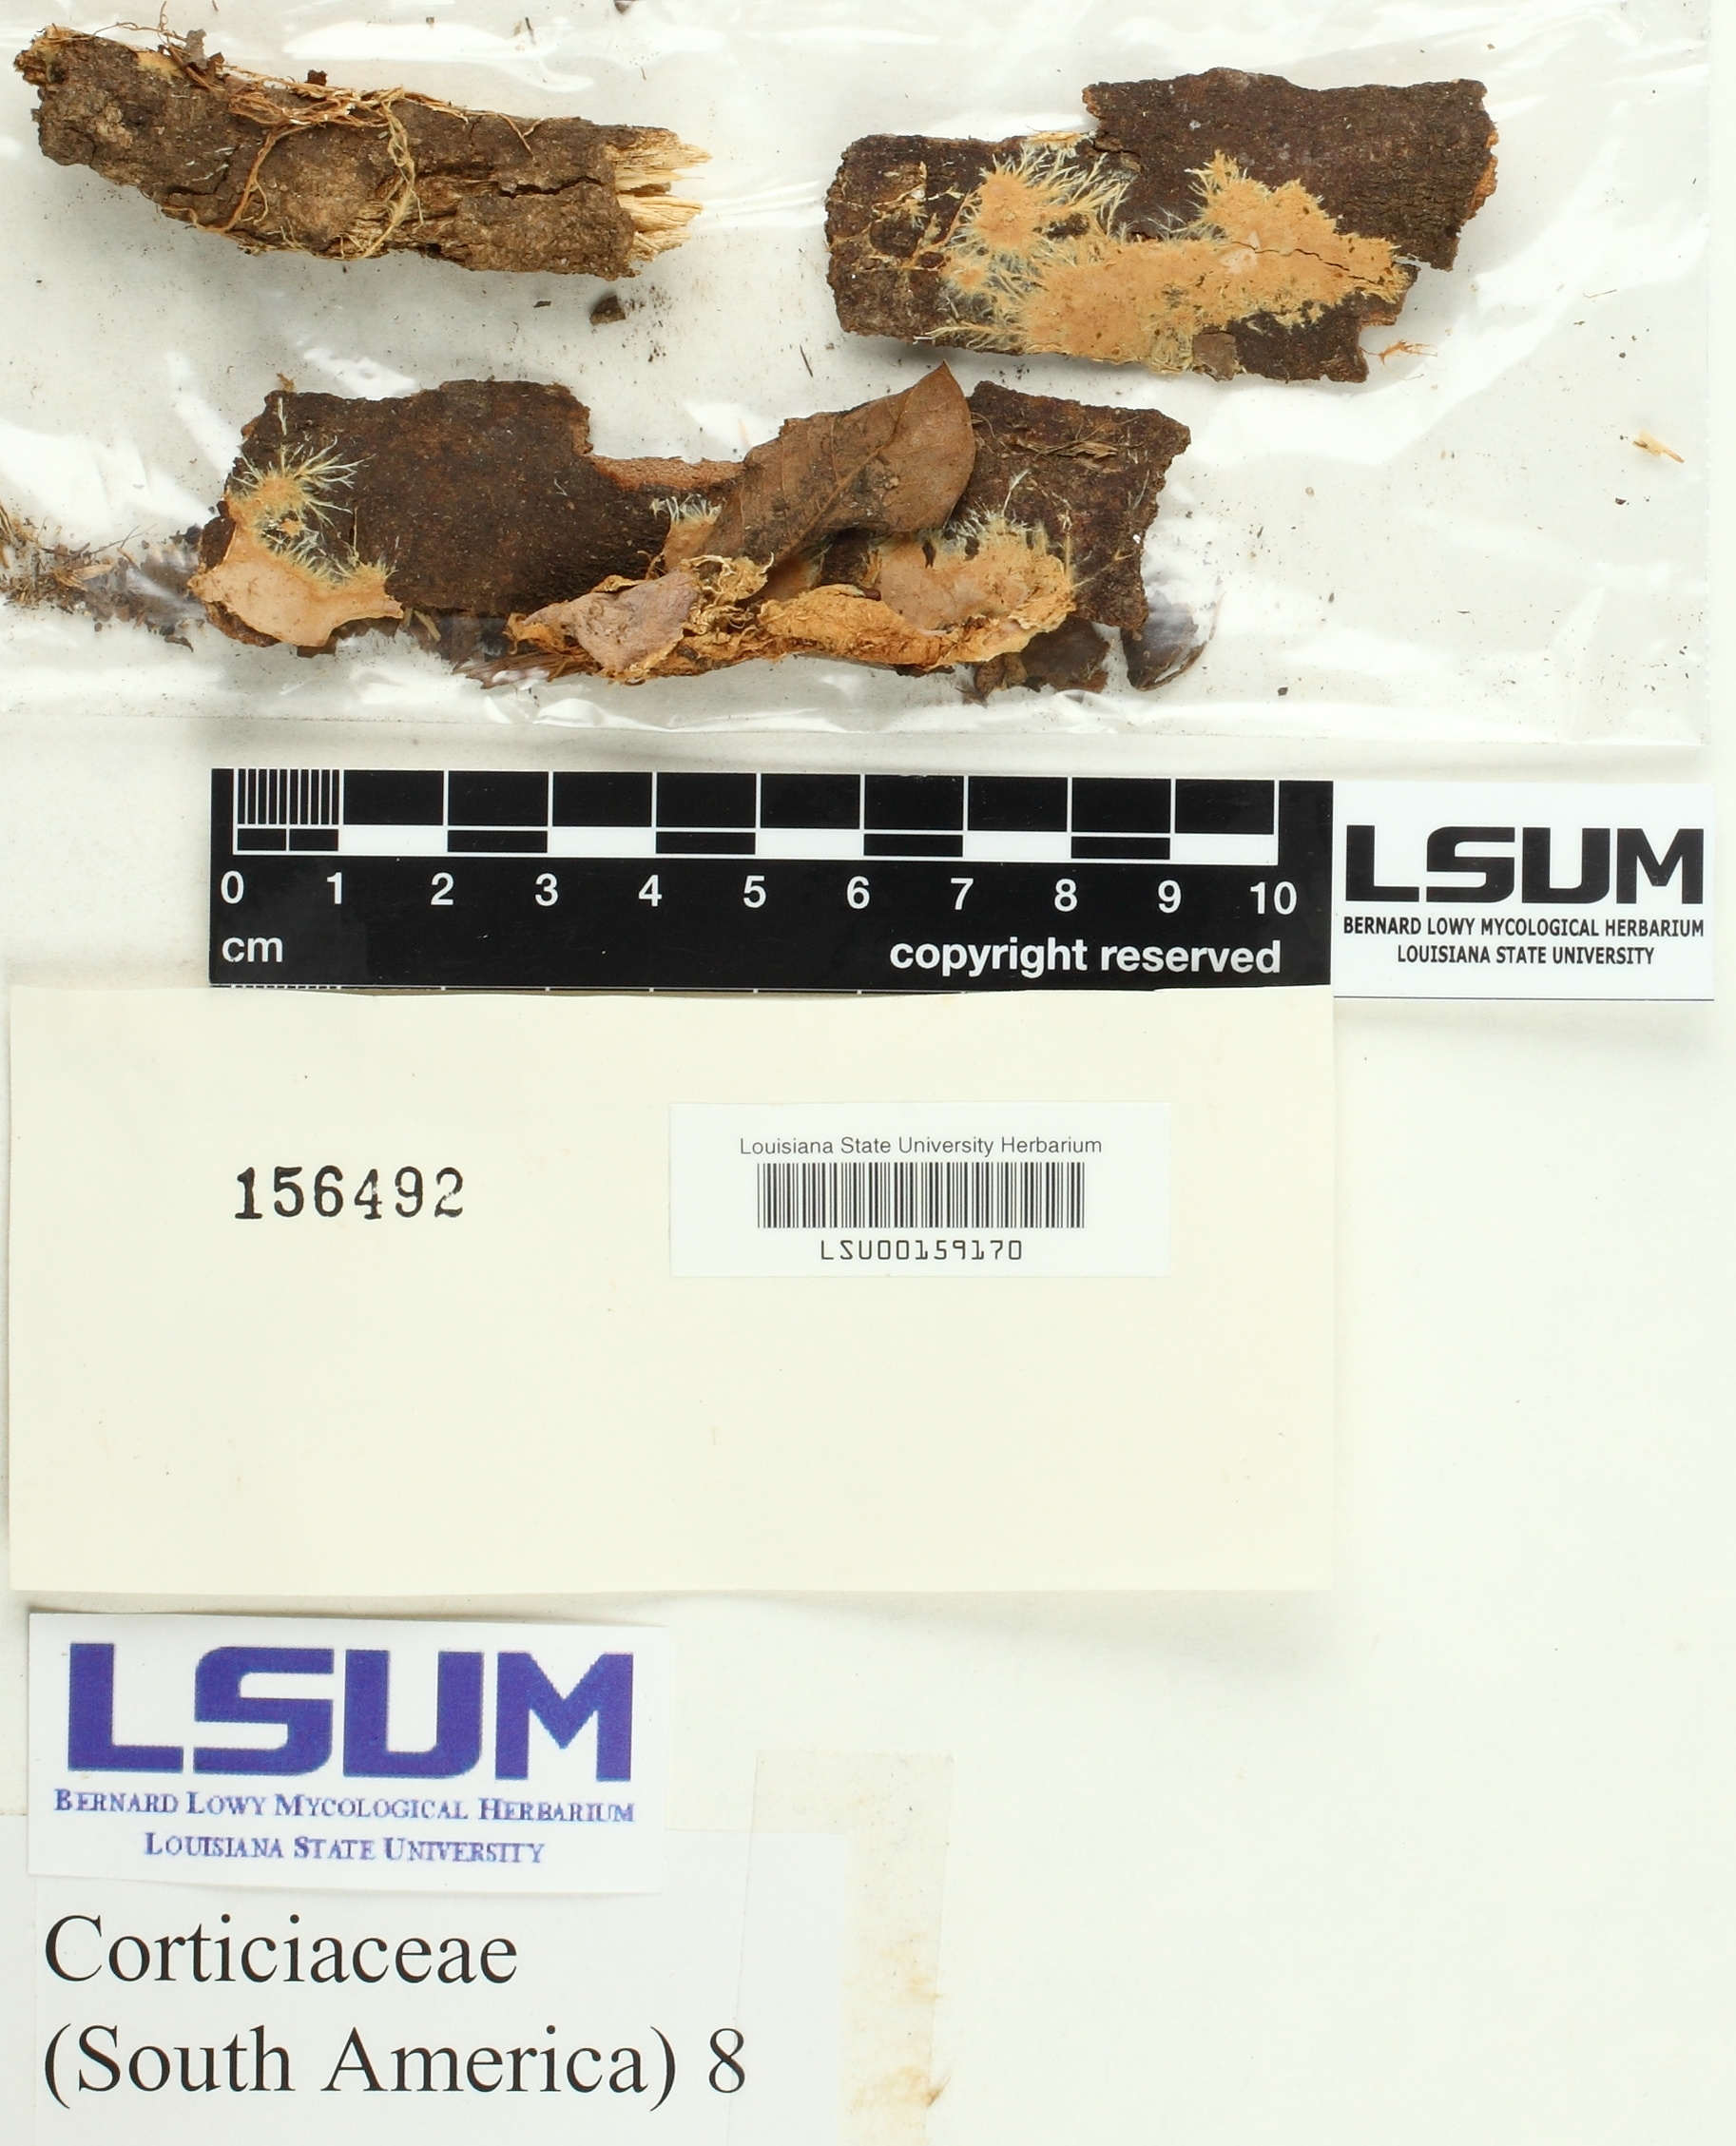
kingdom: Fungi
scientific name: Fungi
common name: Fungi
